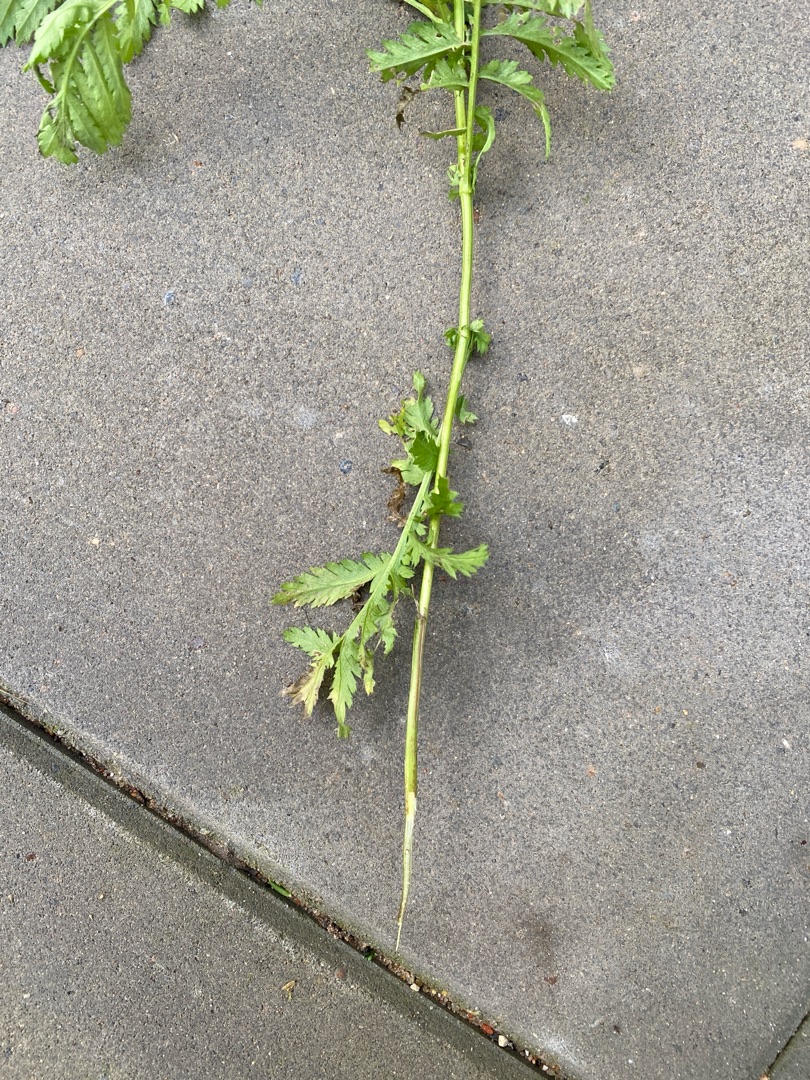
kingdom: Plantae
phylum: Tracheophyta
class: Magnoliopsida
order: Asterales
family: Asteraceae
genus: Tanacetum
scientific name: Tanacetum vulgare
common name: Rejnfan
